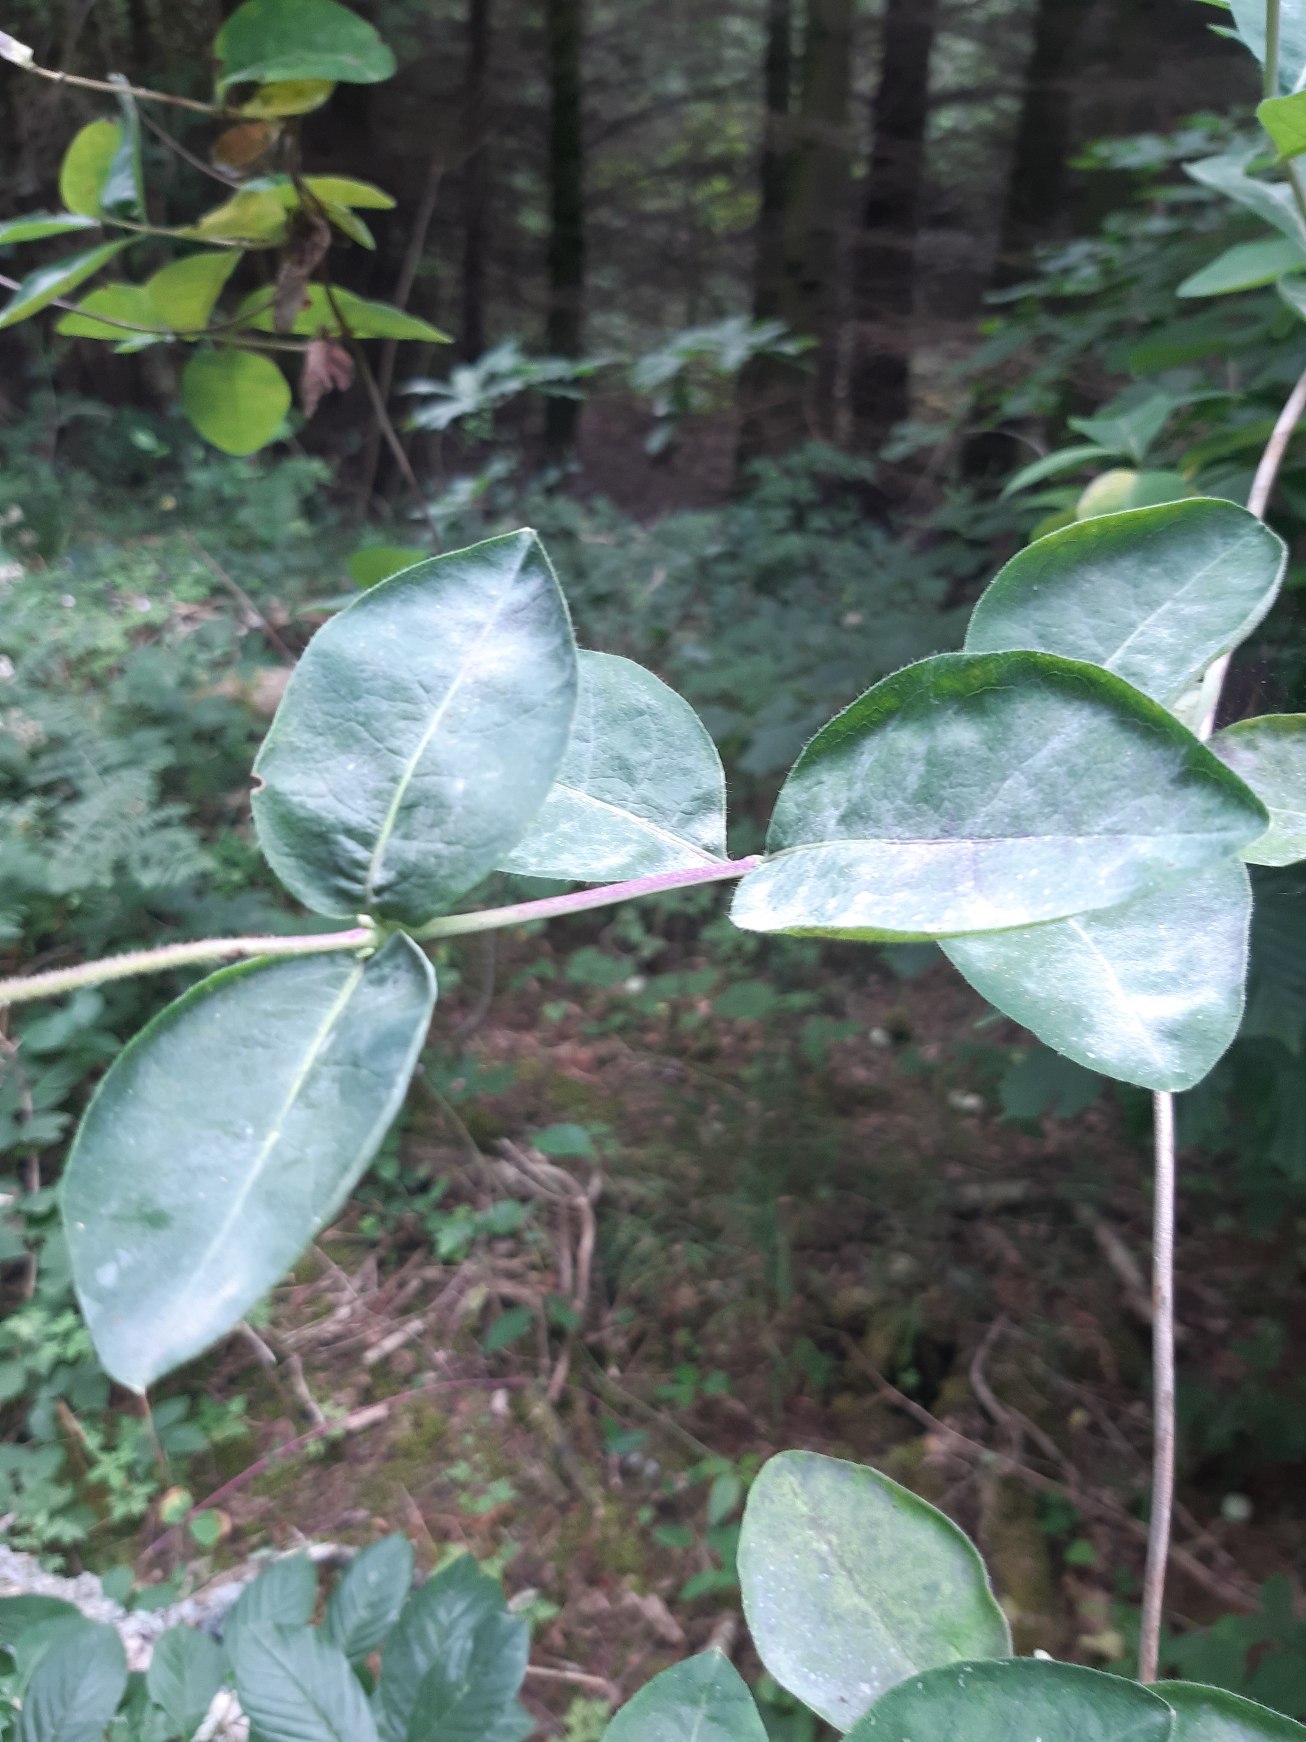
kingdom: Plantae
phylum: Tracheophyta
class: Magnoliopsida
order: Dipsacales
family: Caprifoliaceae
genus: Lonicera
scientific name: Lonicera periclymenum
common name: Almindelig gedeblad
